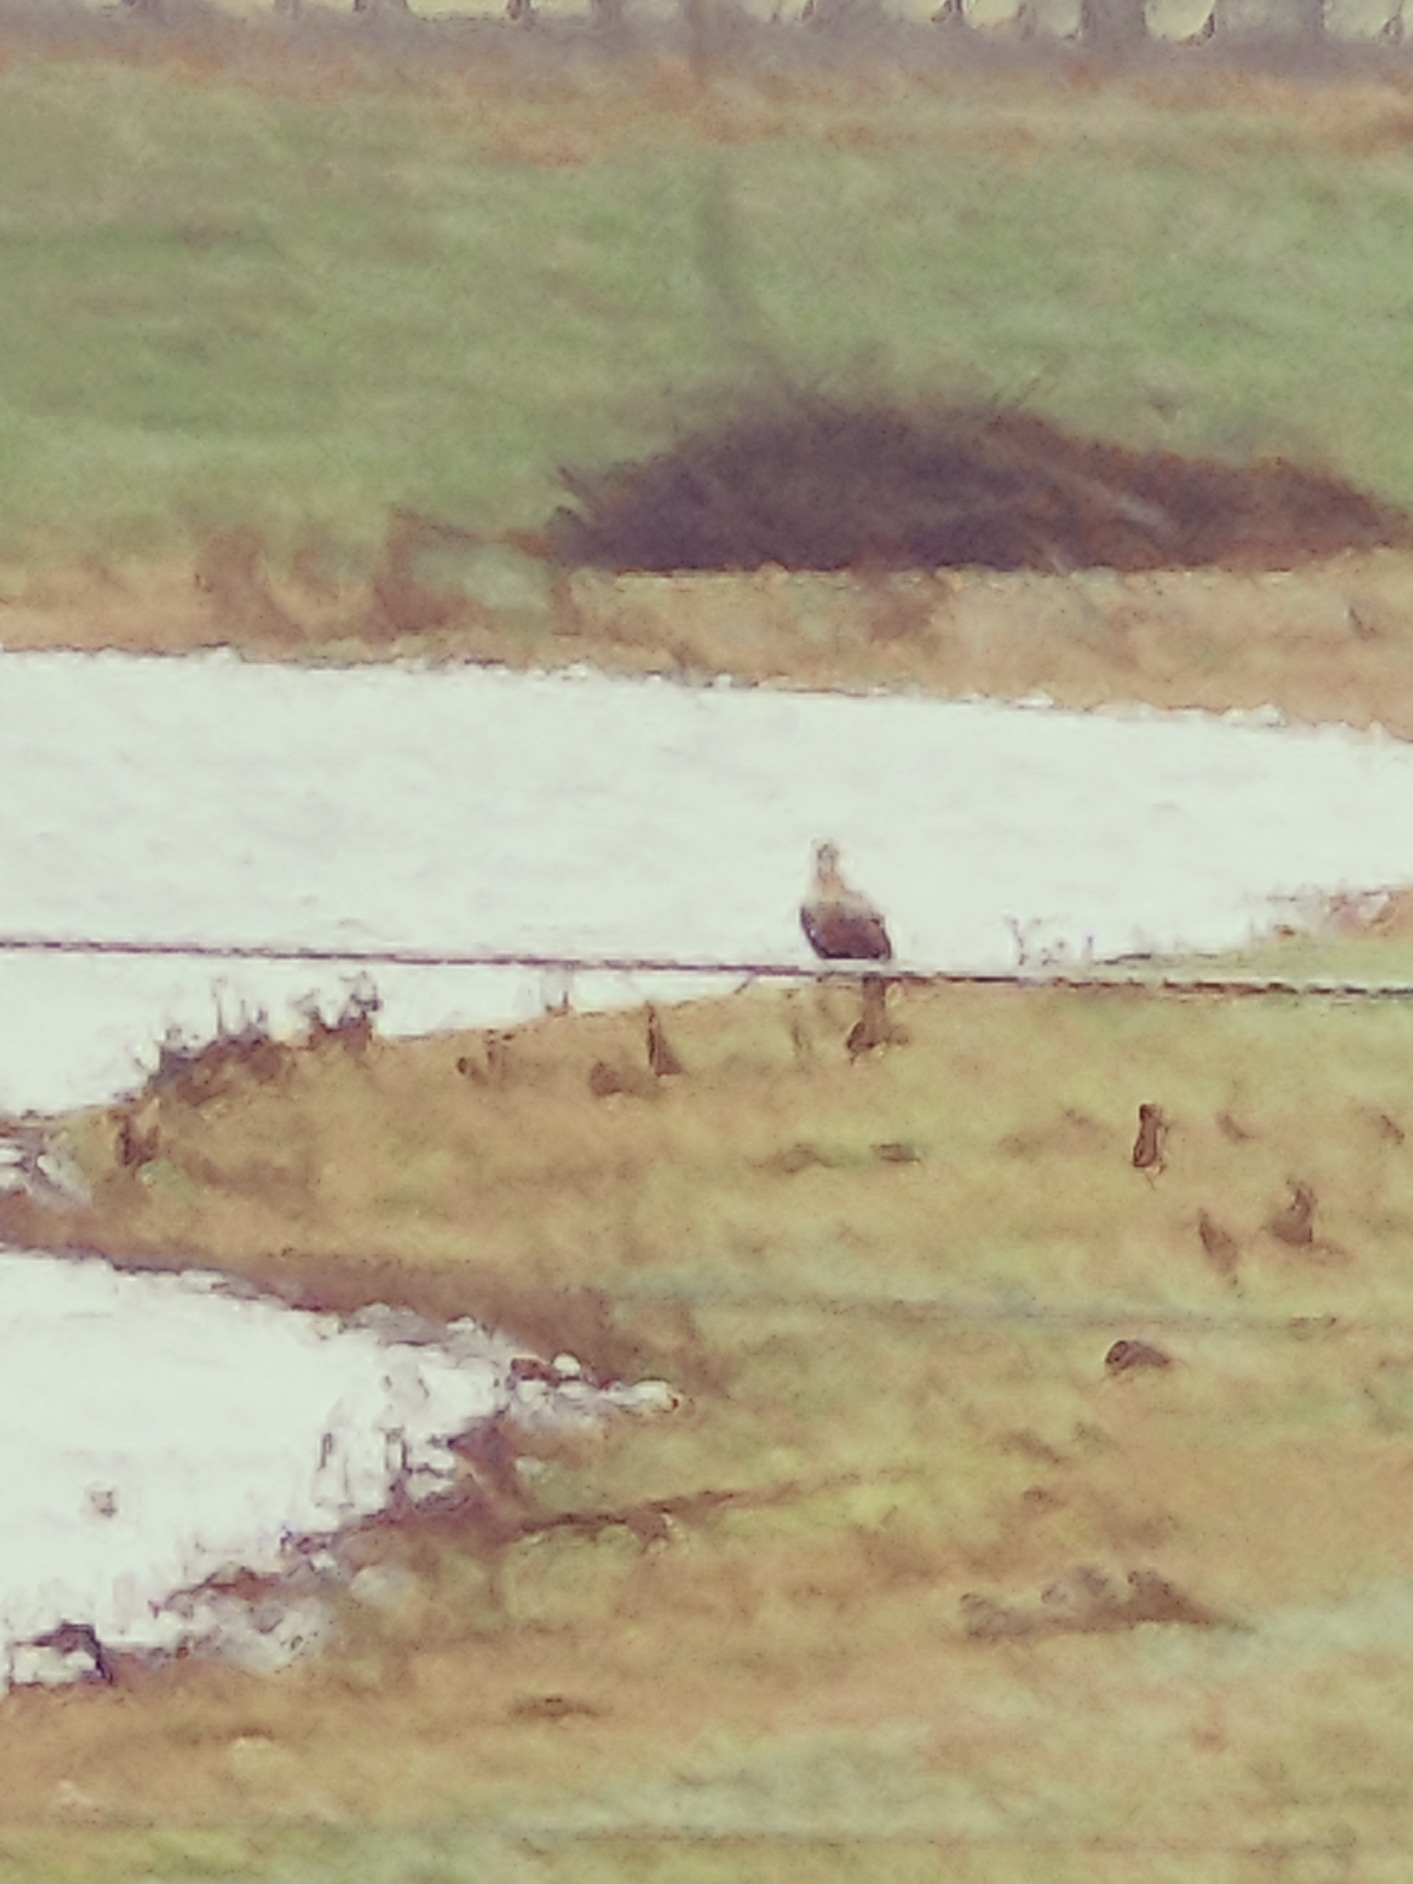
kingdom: Animalia
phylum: Chordata
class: Aves
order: Accipitriformes
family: Accipitridae
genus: Haliaeetus
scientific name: Haliaeetus albicilla
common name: Havørn
